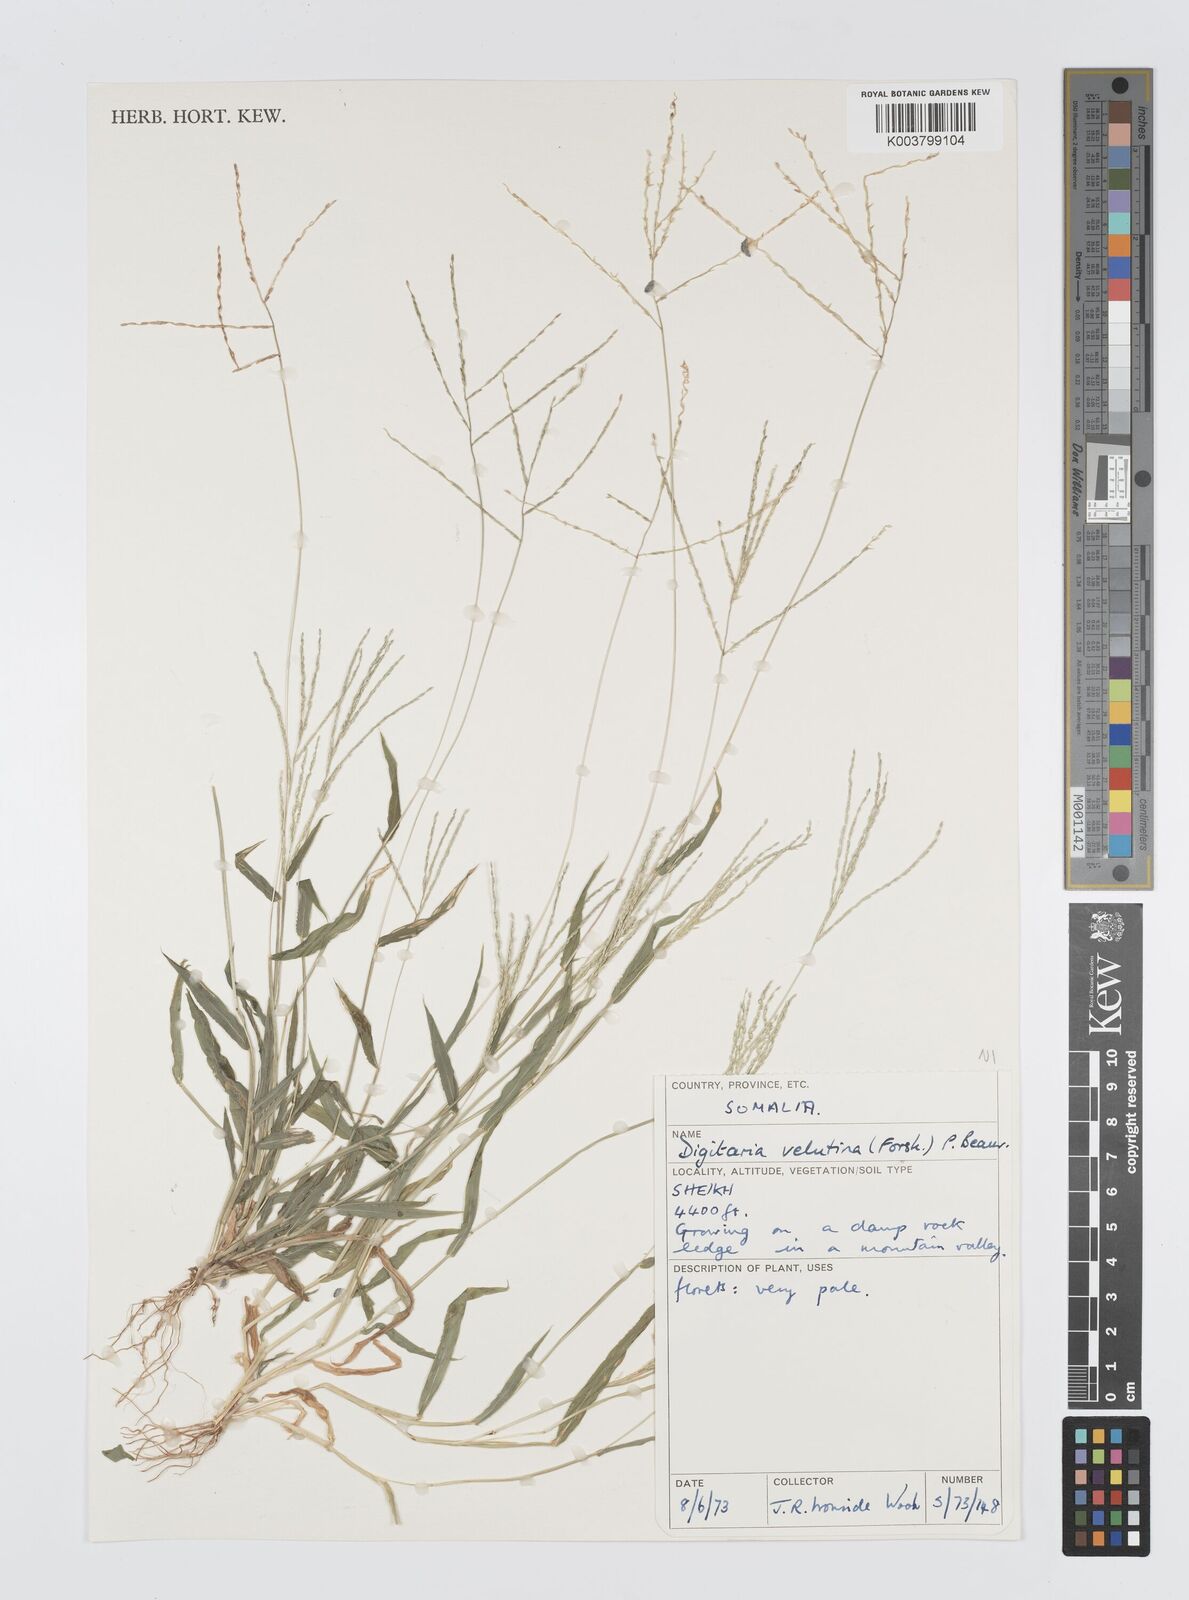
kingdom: Plantae
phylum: Tracheophyta
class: Liliopsida
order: Poales
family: Poaceae
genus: Digitaria
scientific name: Digitaria velutina
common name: Long-plume finger grass
